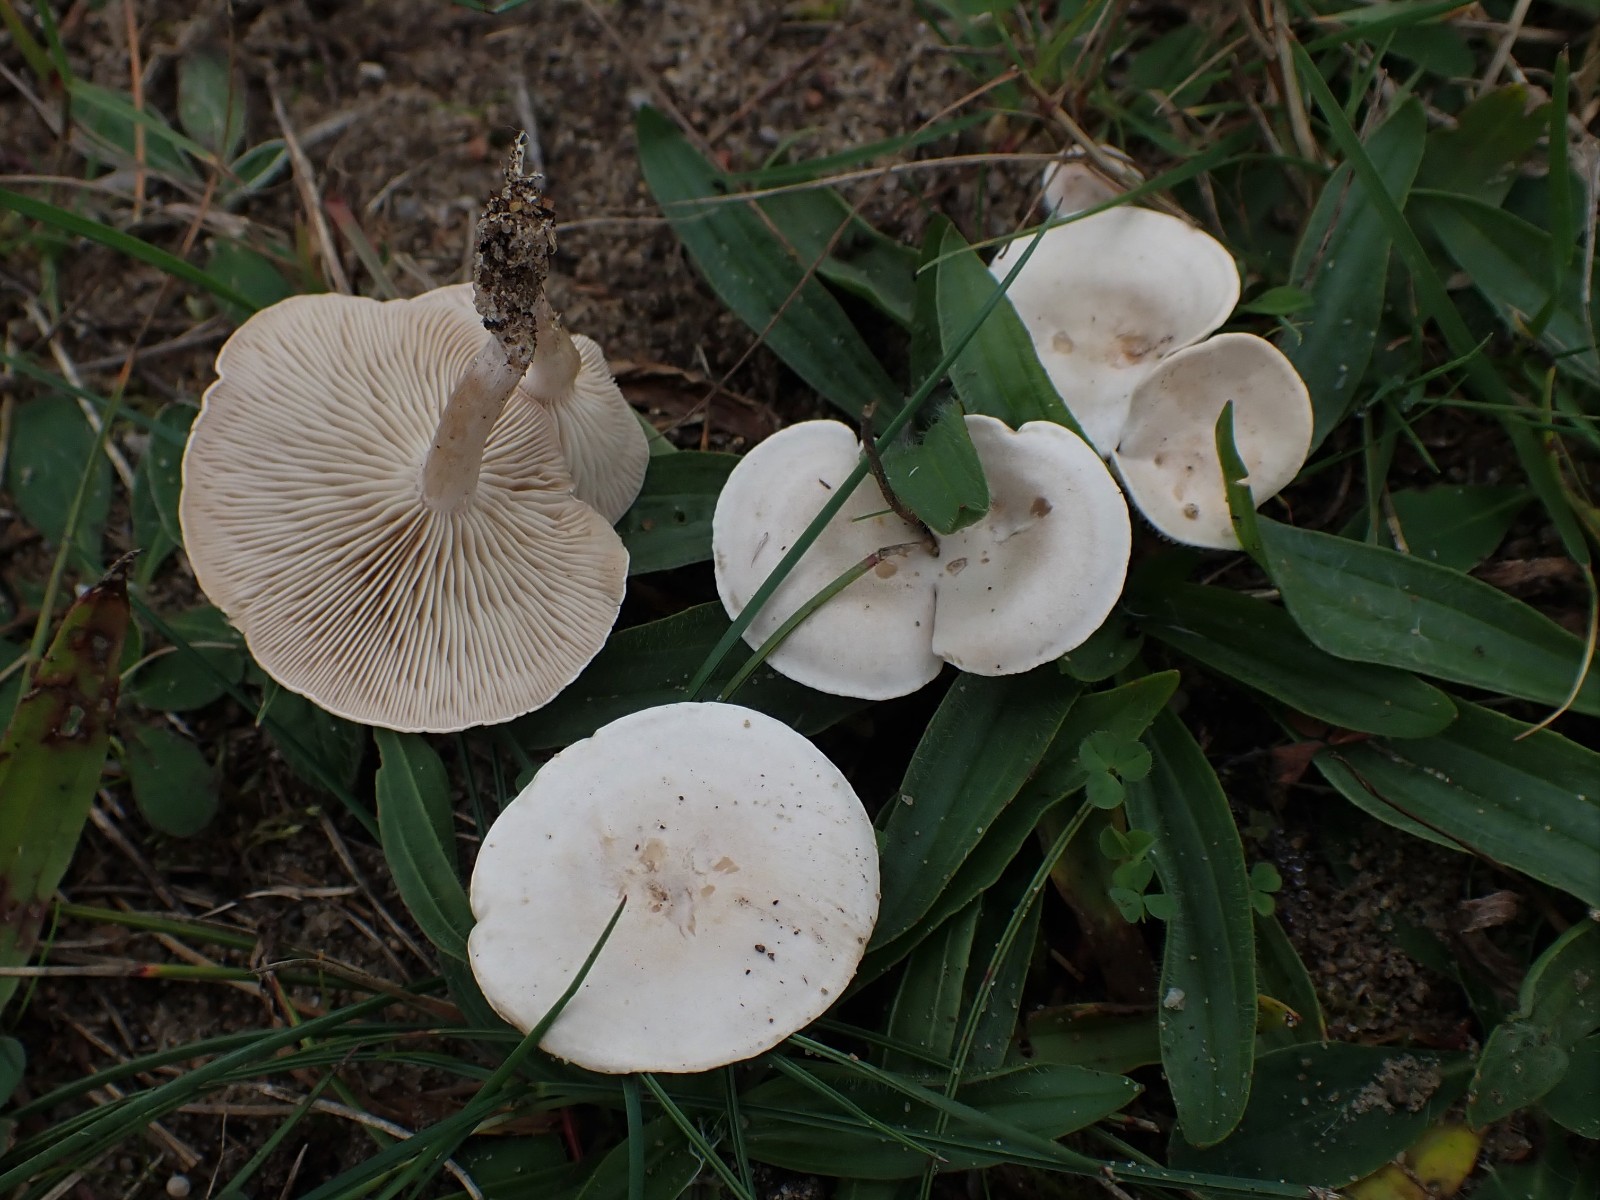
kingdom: Fungi
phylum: Basidiomycota
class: Agaricomycetes
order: Agaricales
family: Tricholomataceae
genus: Clitocybe
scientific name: Clitocybe rivulosa
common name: eng-tragthat
